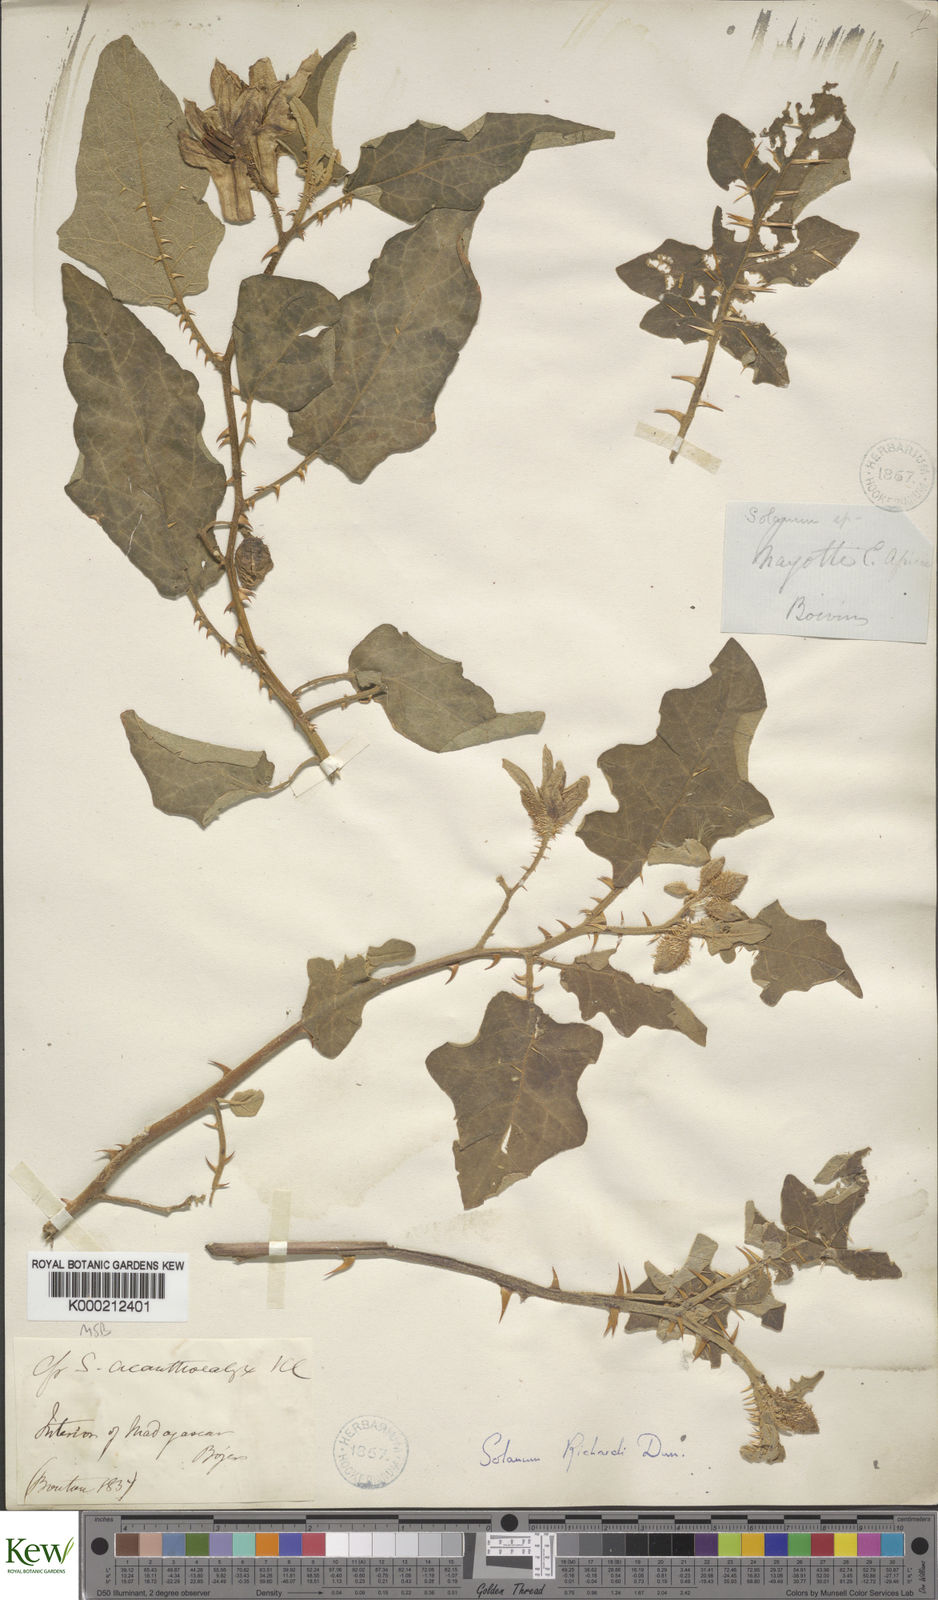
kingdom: Plantae
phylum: Tracheophyta
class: Magnoliopsida
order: Solanales
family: Solanaceae
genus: Solanum
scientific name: Solanum richardii
